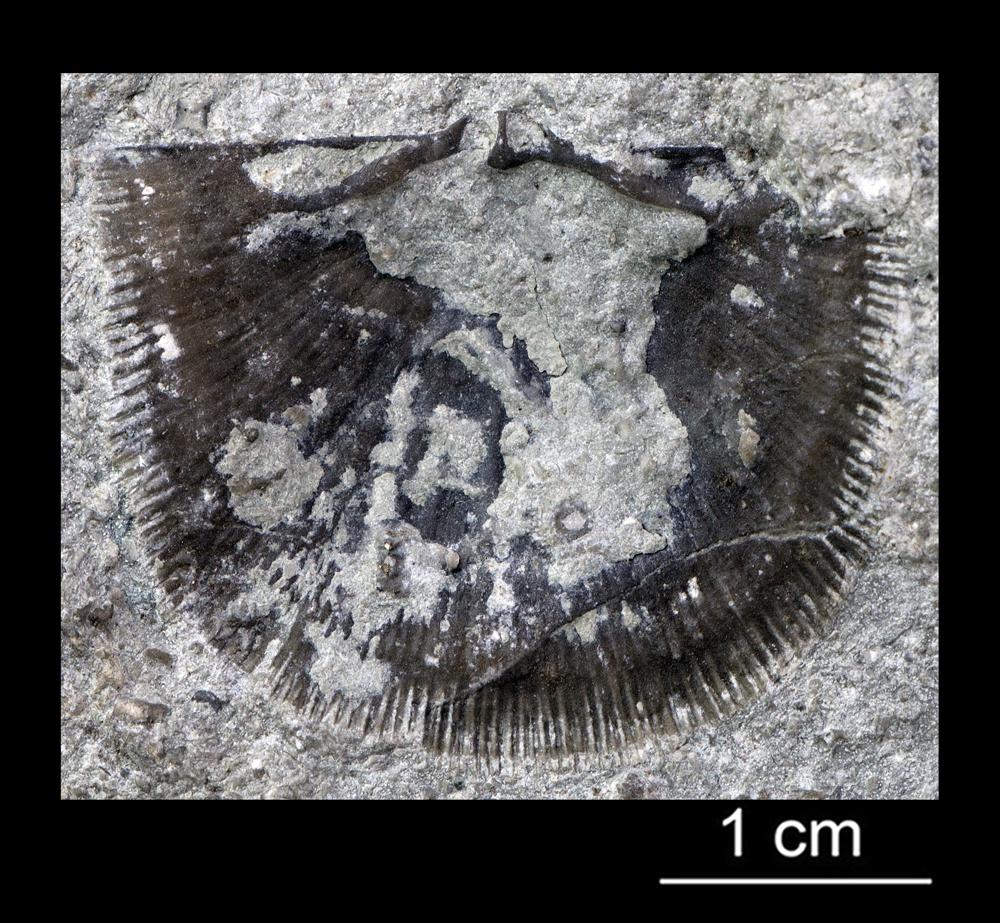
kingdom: Animalia
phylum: Brachiopoda
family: Gonambonitidae
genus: Gonambonites
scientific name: Gonambonites plana
